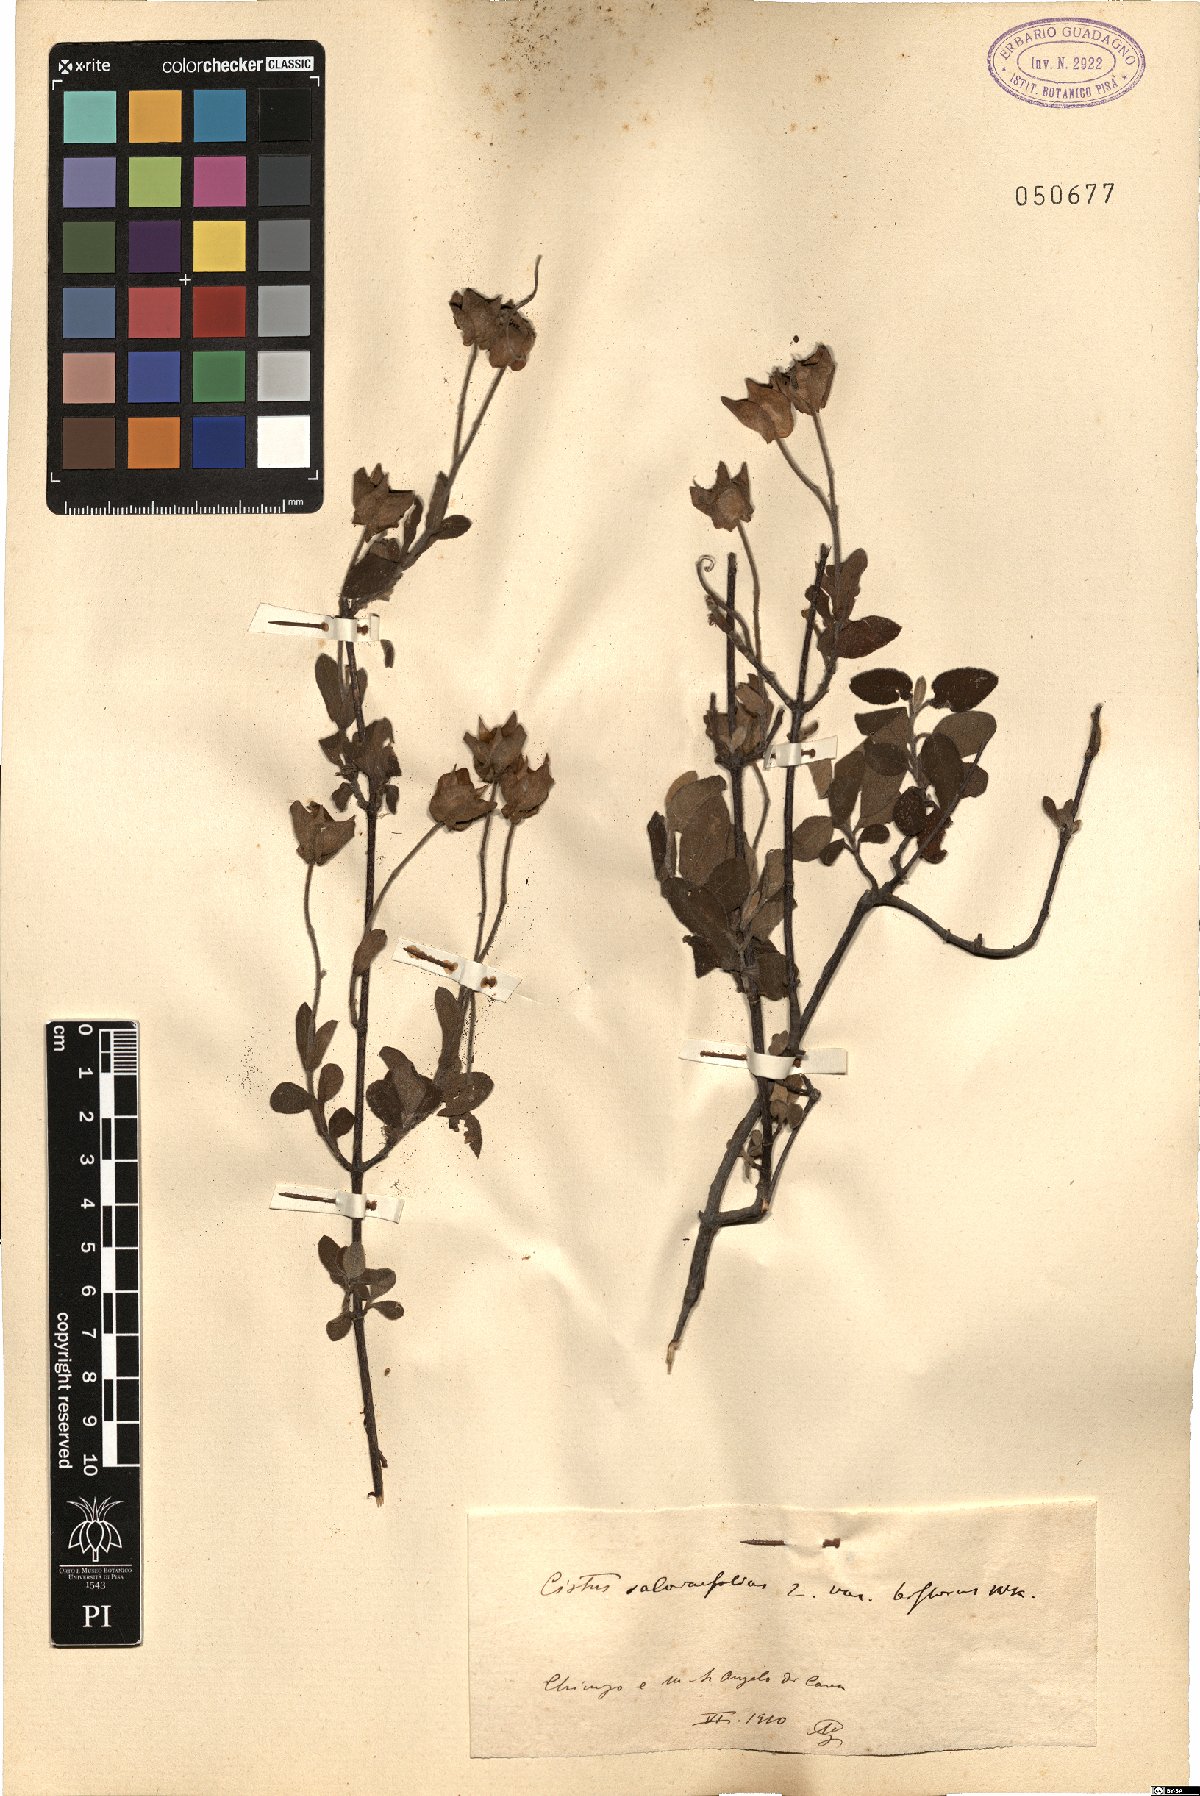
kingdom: Plantae
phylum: Tracheophyta
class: Magnoliopsida
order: Malvales
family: Cistaceae
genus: Cistus
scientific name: Cistus salviifolius
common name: Salvia cistus
